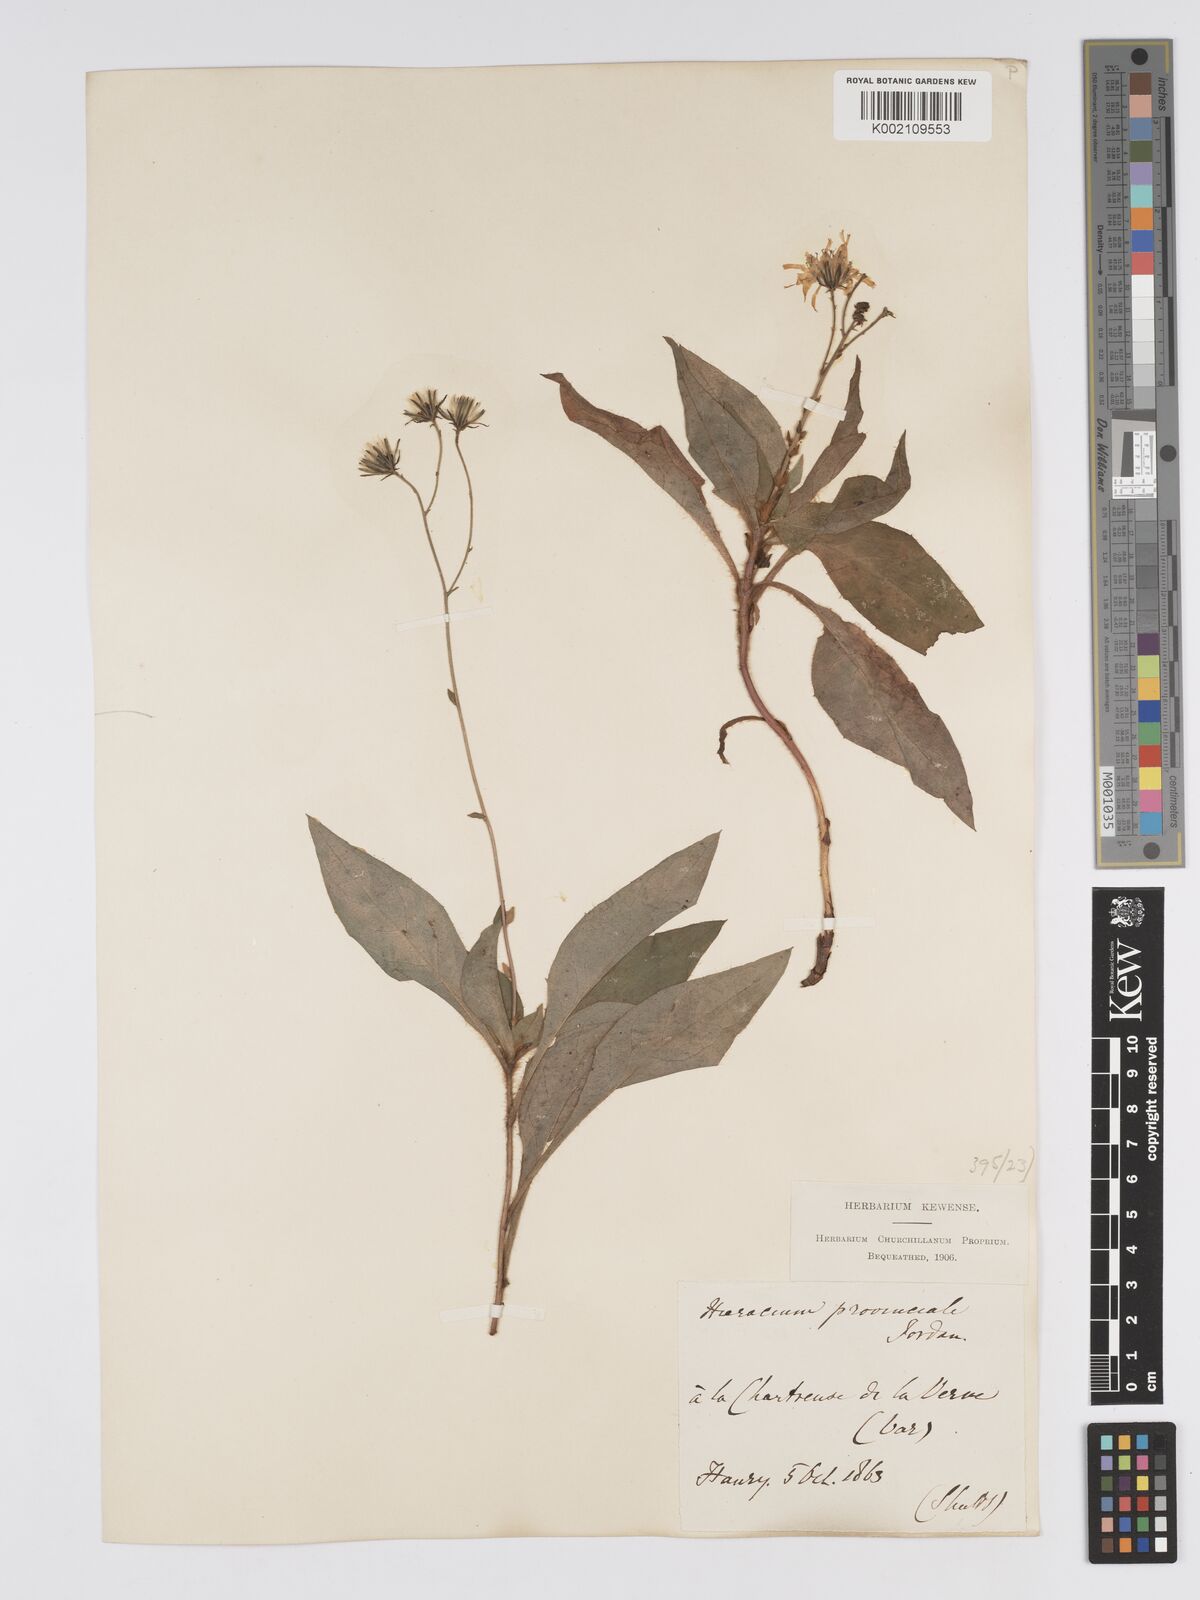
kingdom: Plantae
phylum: Tracheophyta
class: Magnoliopsida
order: Asterales
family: Asteraceae
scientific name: Asteraceae
